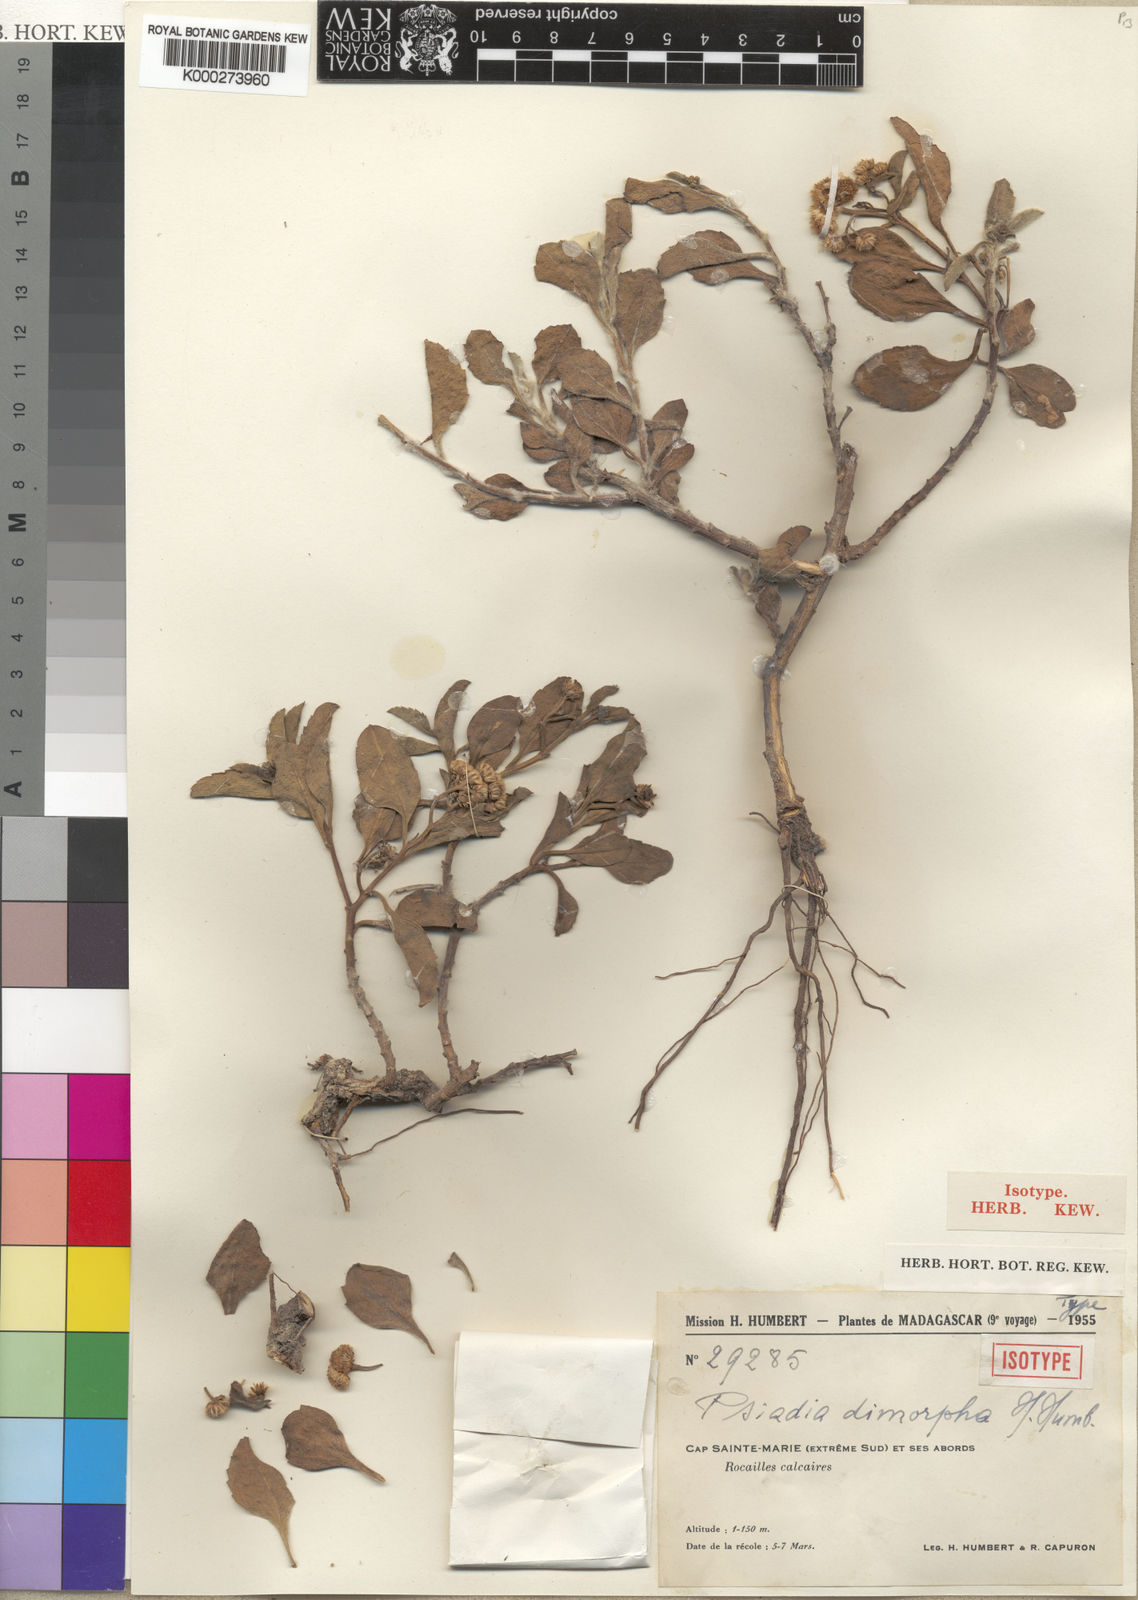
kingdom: Plantae
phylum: Tracheophyta
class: Magnoliopsida
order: Asterales
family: Asteraceae
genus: Psiadia
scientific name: Psiadia dimorpha
